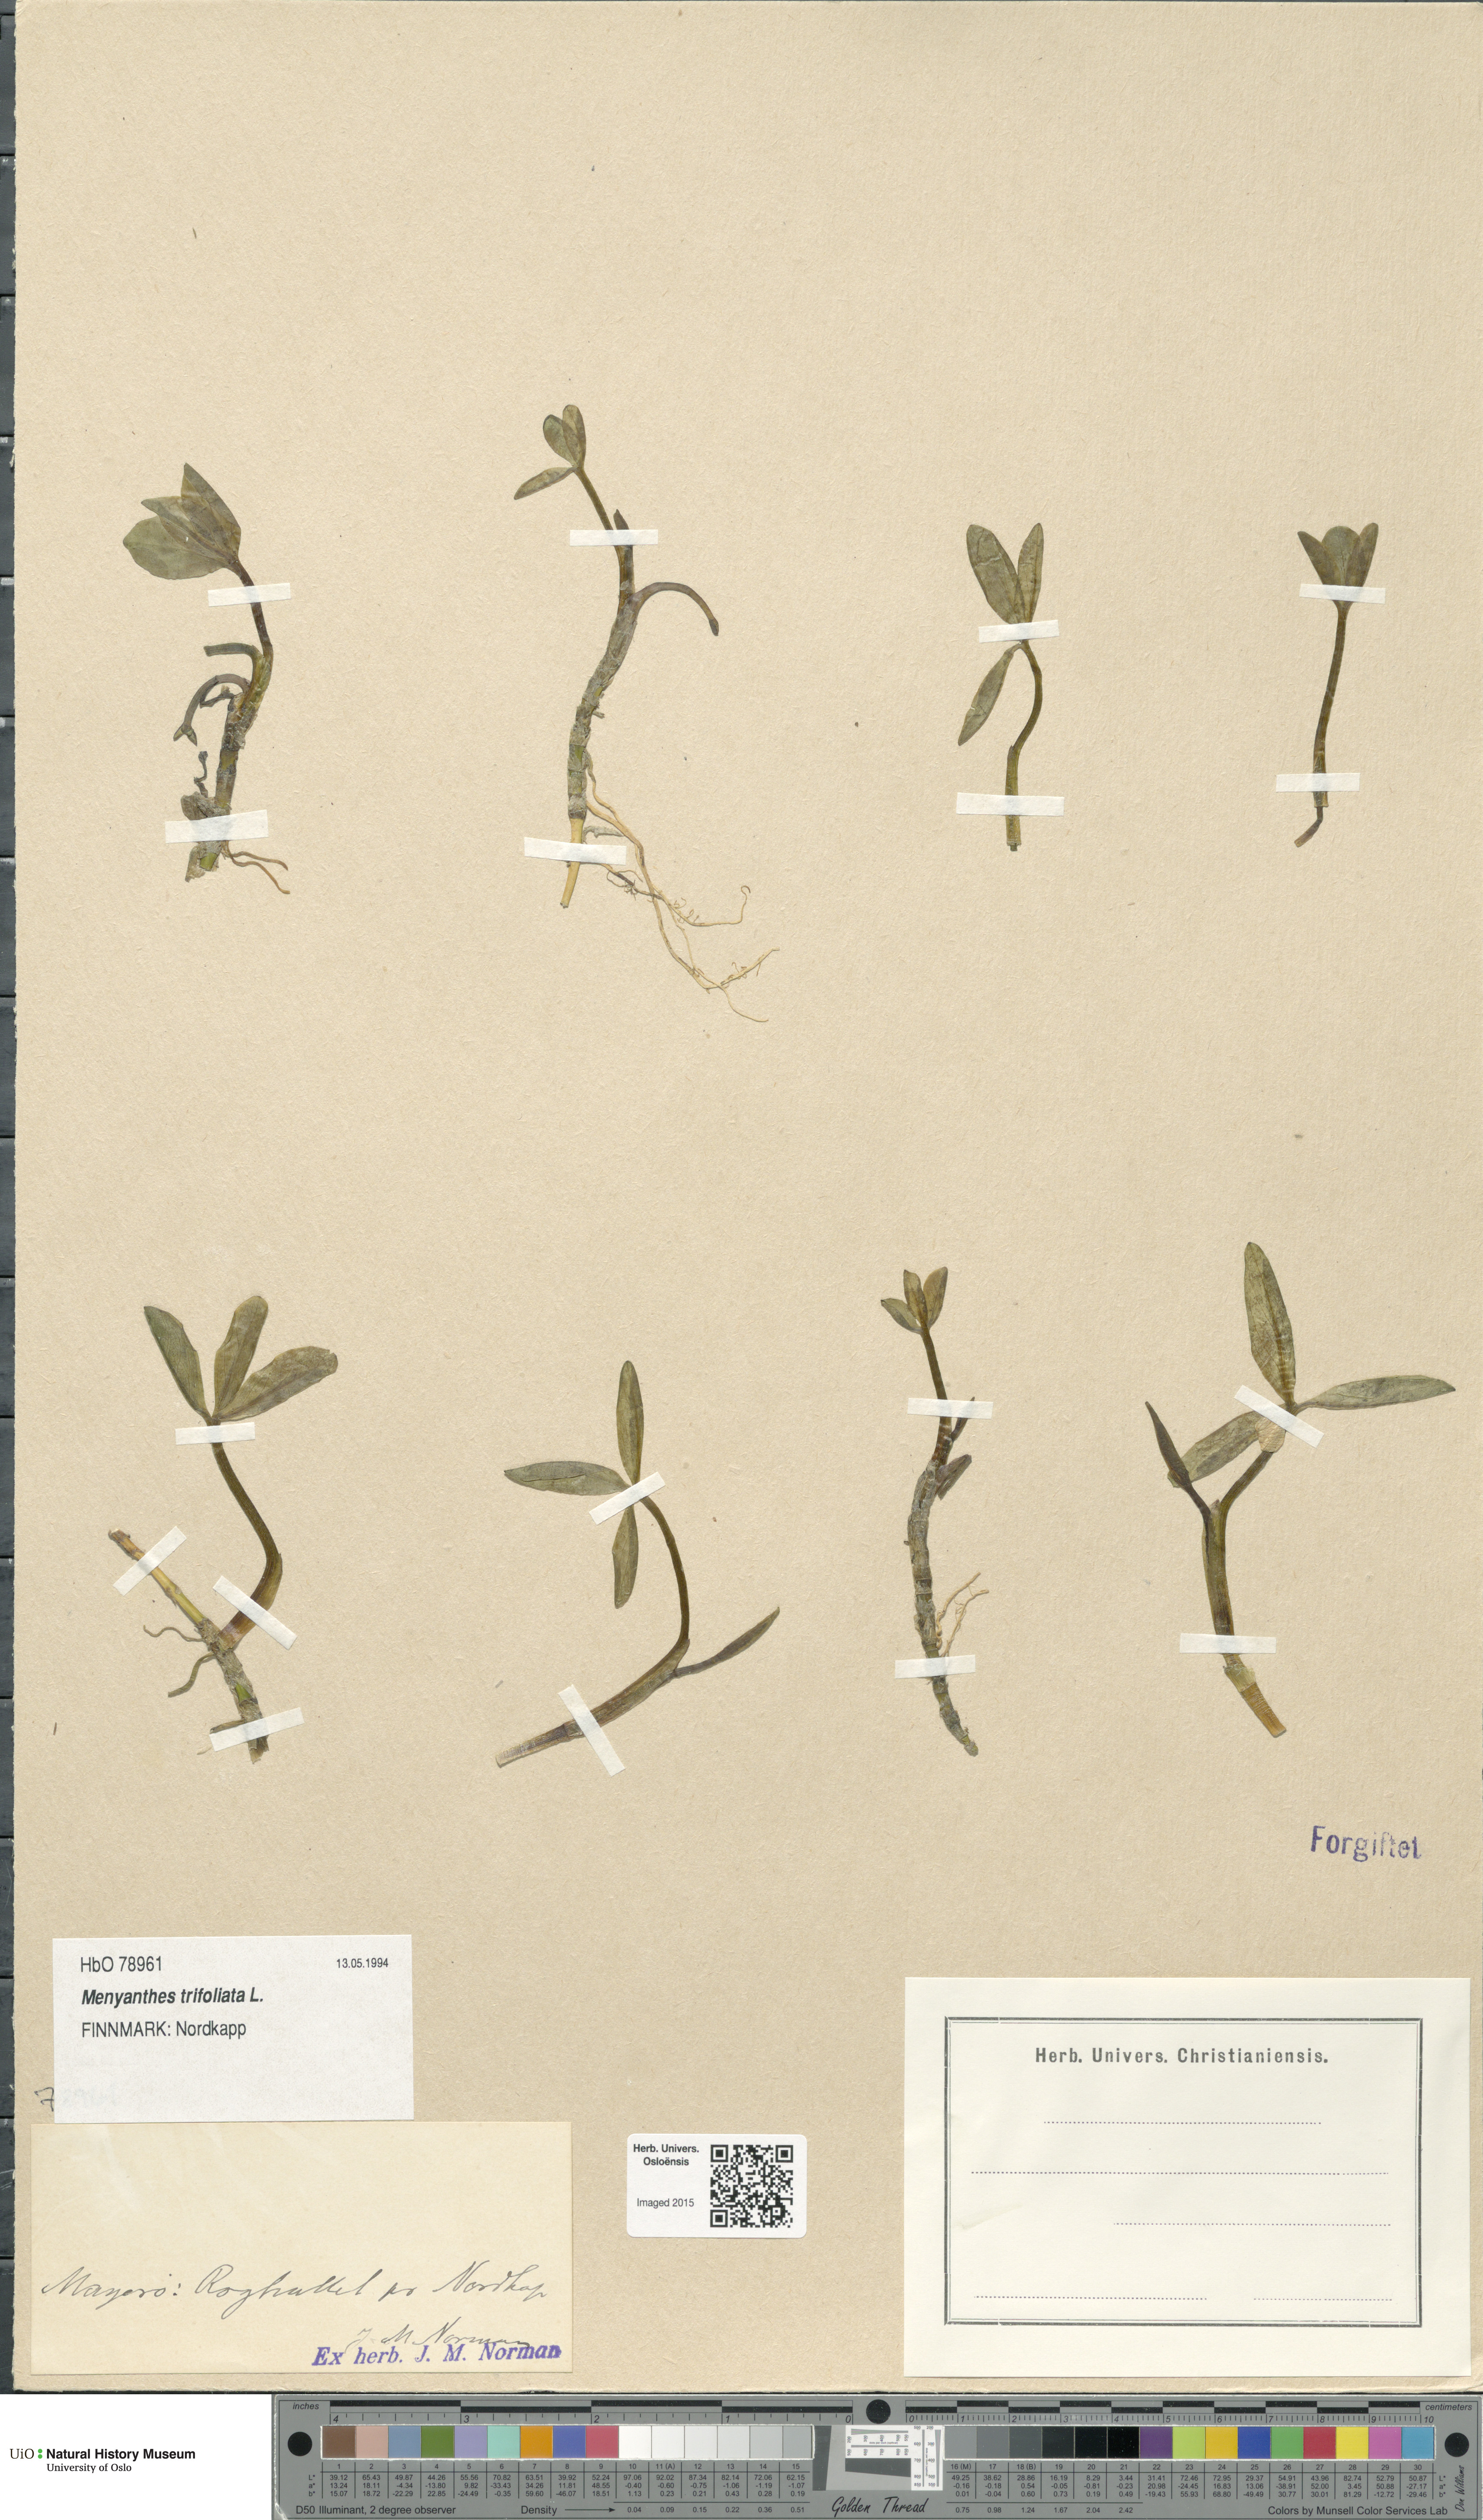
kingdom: Plantae
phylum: Tracheophyta
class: Magnoliopsida
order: Asterales
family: Menyanthaceae
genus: Menyanthes
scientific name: Menyanthes trifoliata
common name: Bogbean
